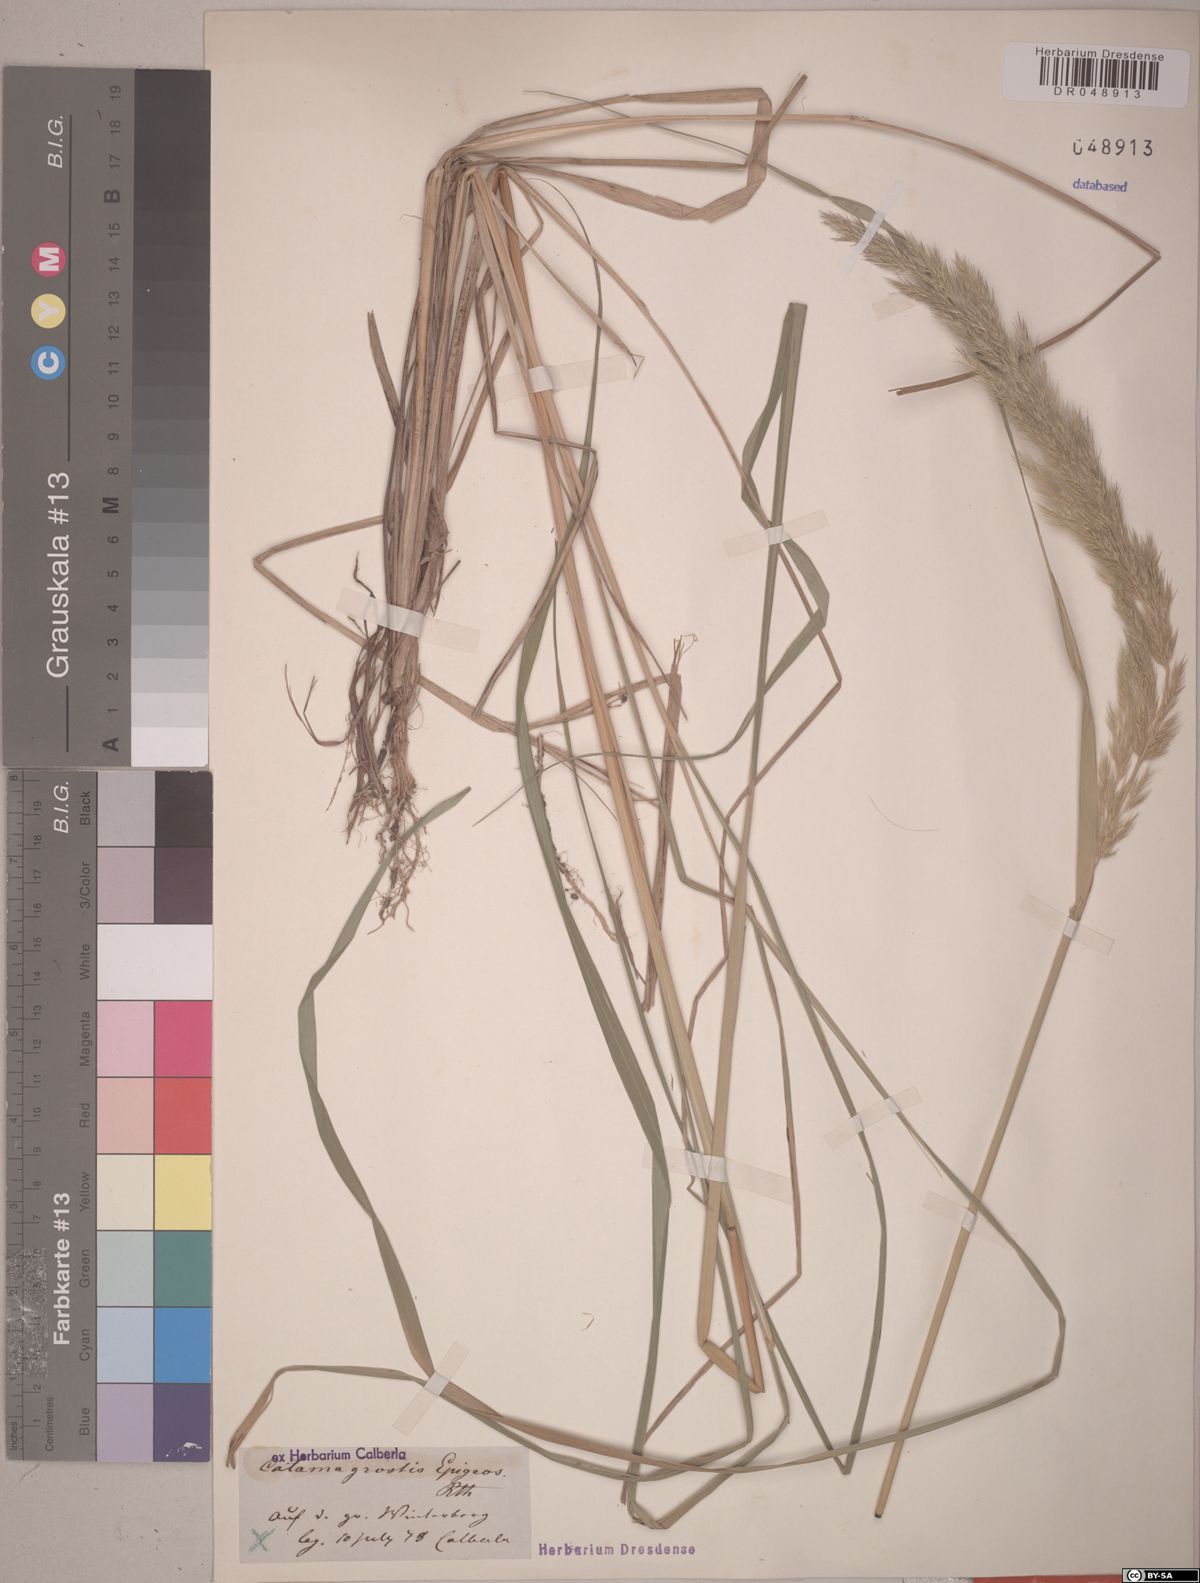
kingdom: Plantae
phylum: Tracheophyta
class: Liliopsida
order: Poales
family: Poaceae
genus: Calamagrostis
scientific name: Calamagrostis epigejos
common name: Wood small-reed
